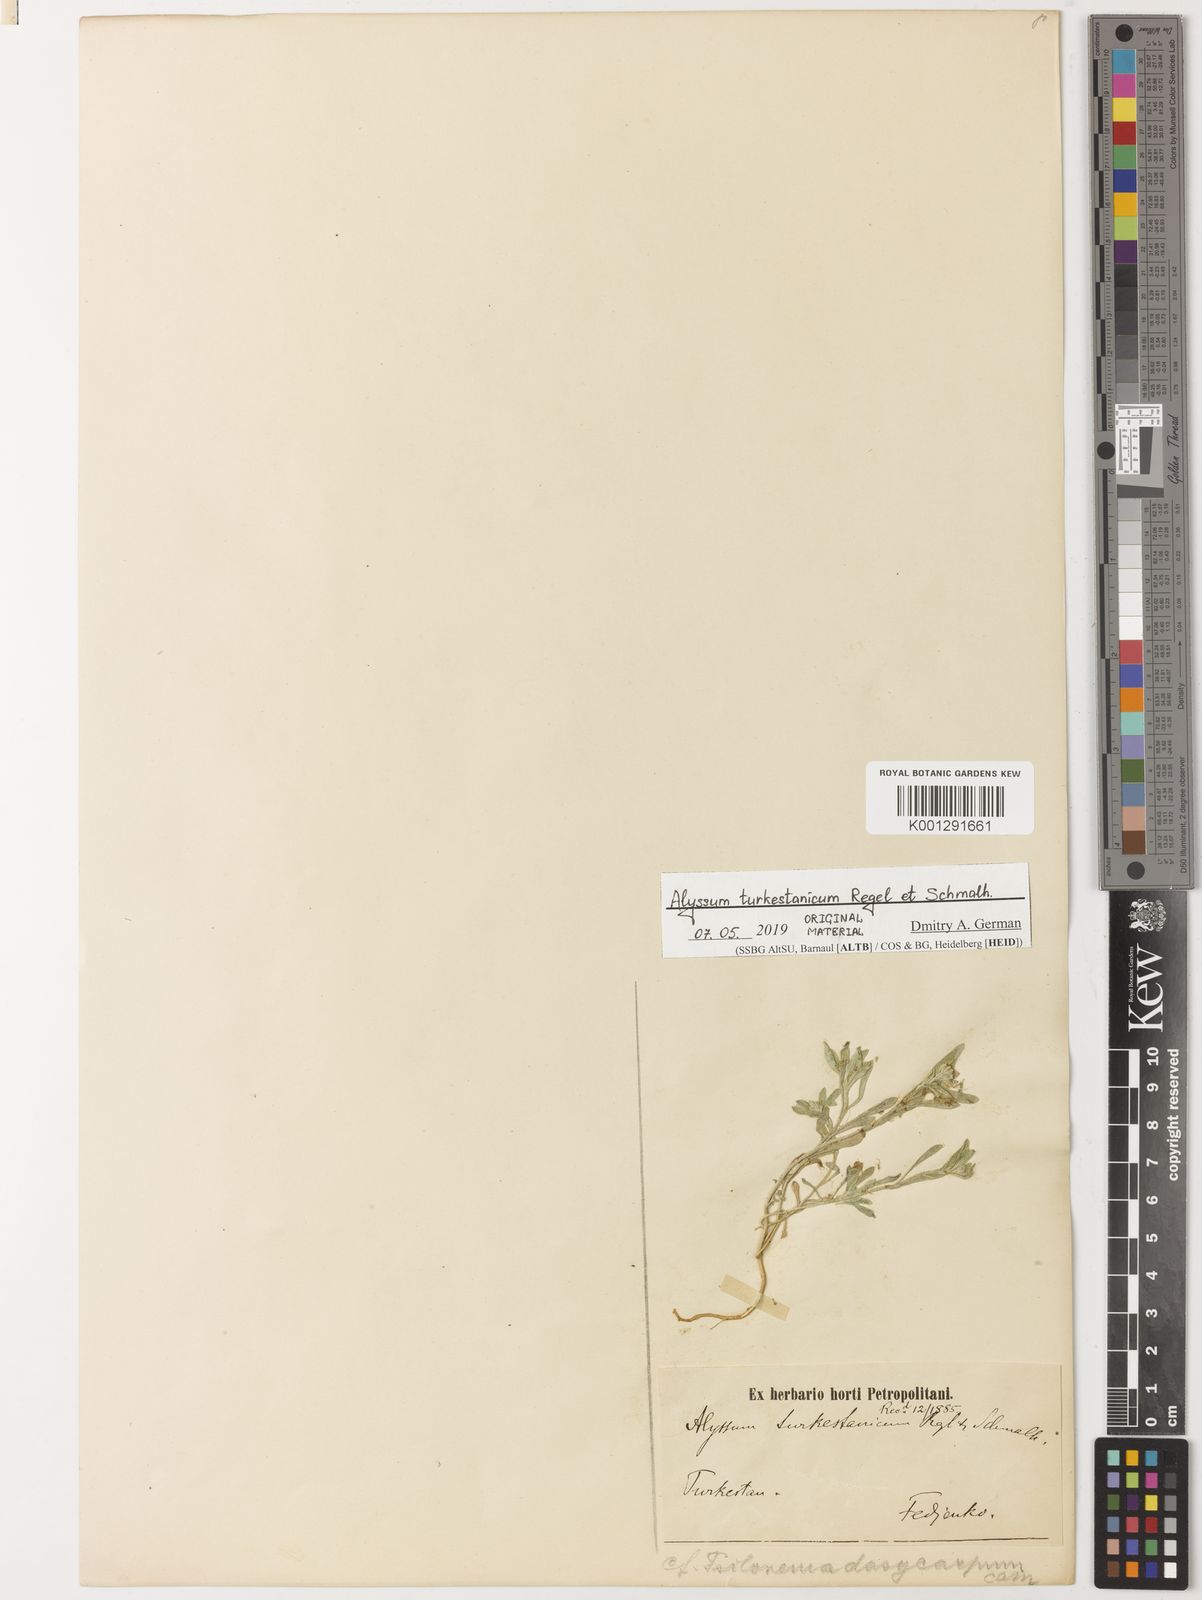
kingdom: Plantae
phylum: Tracheophyta
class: Magnoliopsida
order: Brassicales
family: Brassicaceae
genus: Alyssum
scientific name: Alyssum turkestanicum
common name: Desert alyssum
